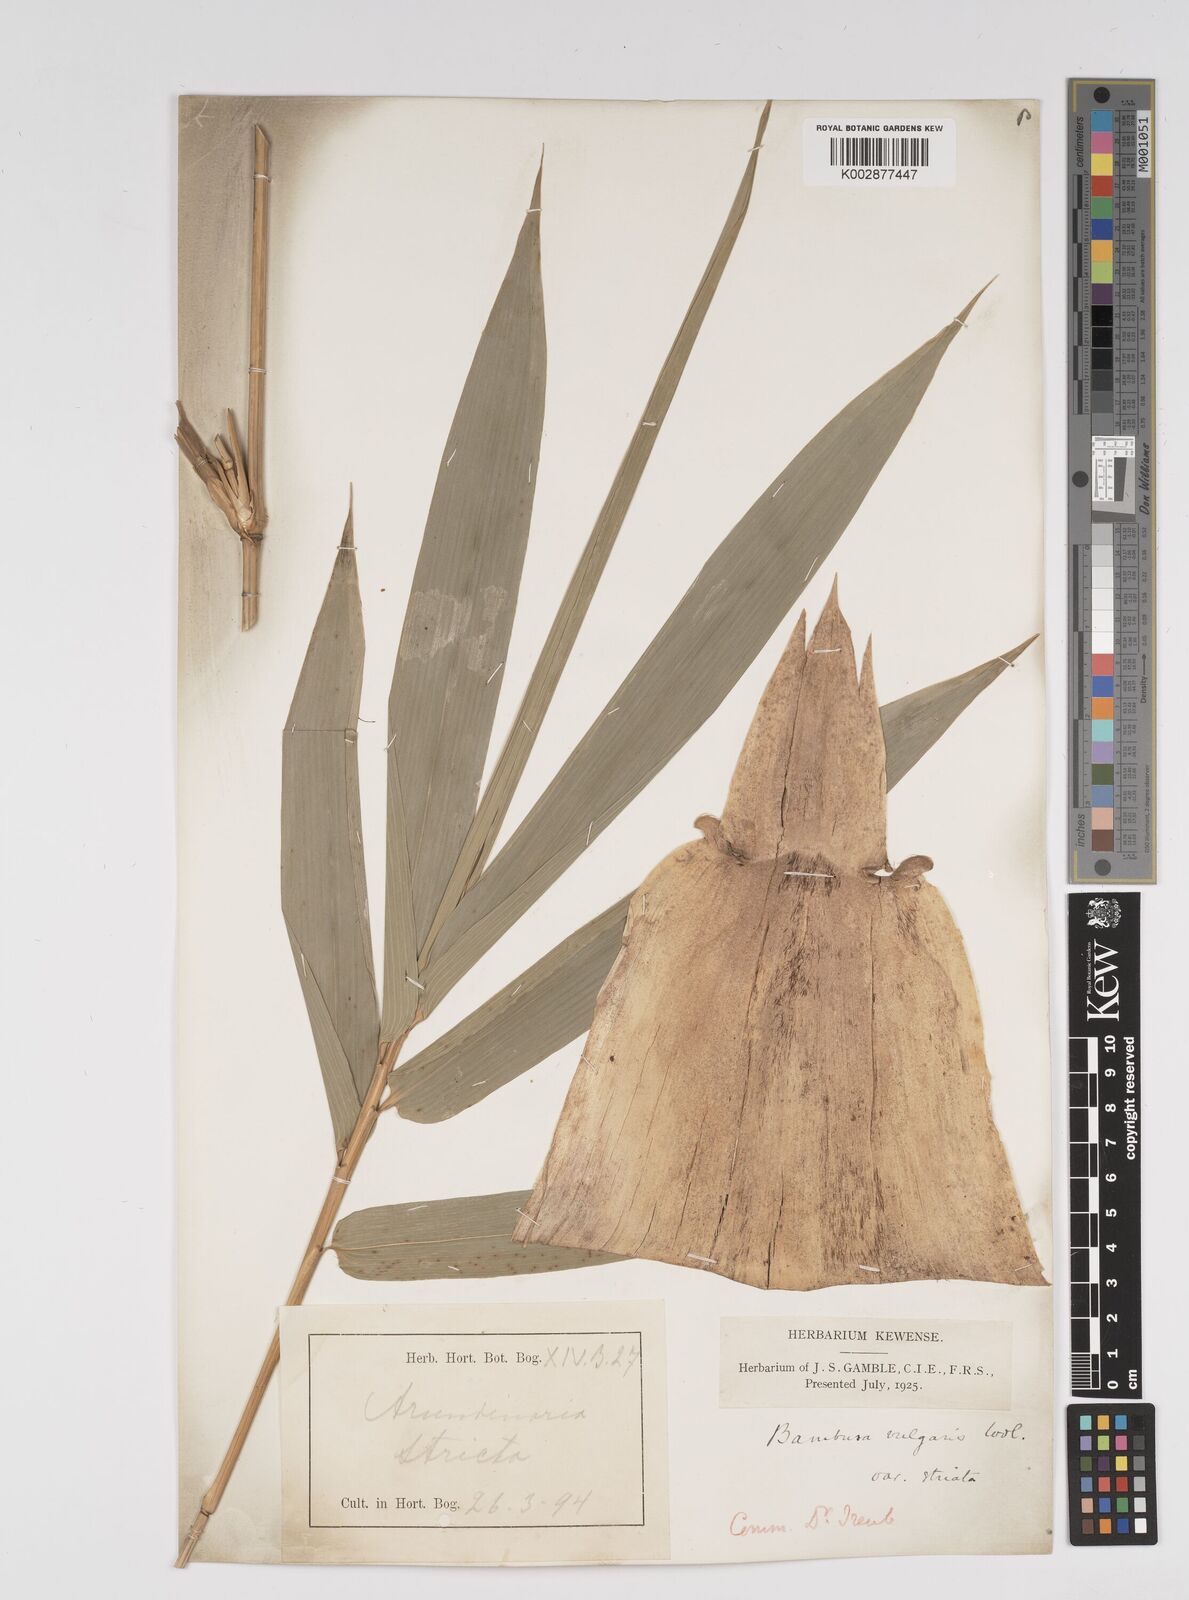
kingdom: Plantae
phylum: Tracheophyta
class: Liliopsida
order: Poales
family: Poaceae
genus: Bambusa
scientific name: Bambusa vulgaris
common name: Common bamboo
